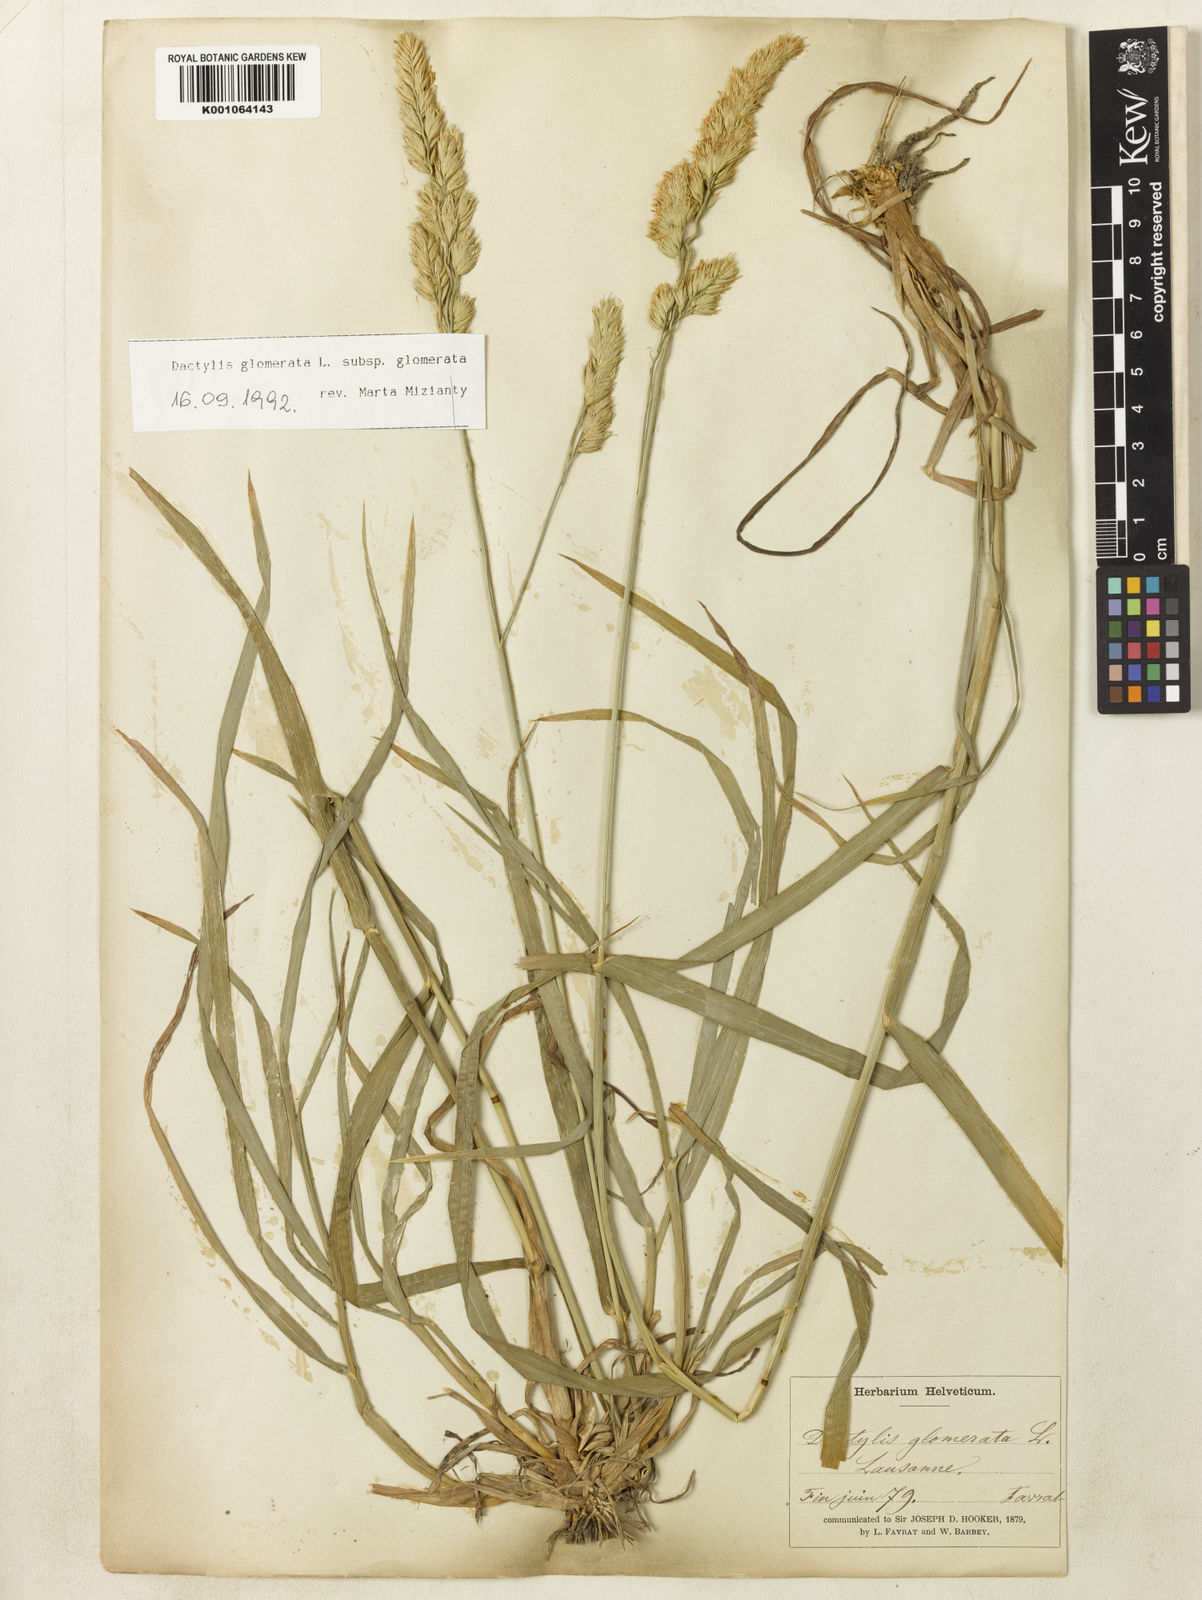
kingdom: Plantae
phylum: Tracheophyta
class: Liliopsida
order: Poales
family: Poaceae
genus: Dactylis
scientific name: Dactylis glomerata
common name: Orchardgrass
